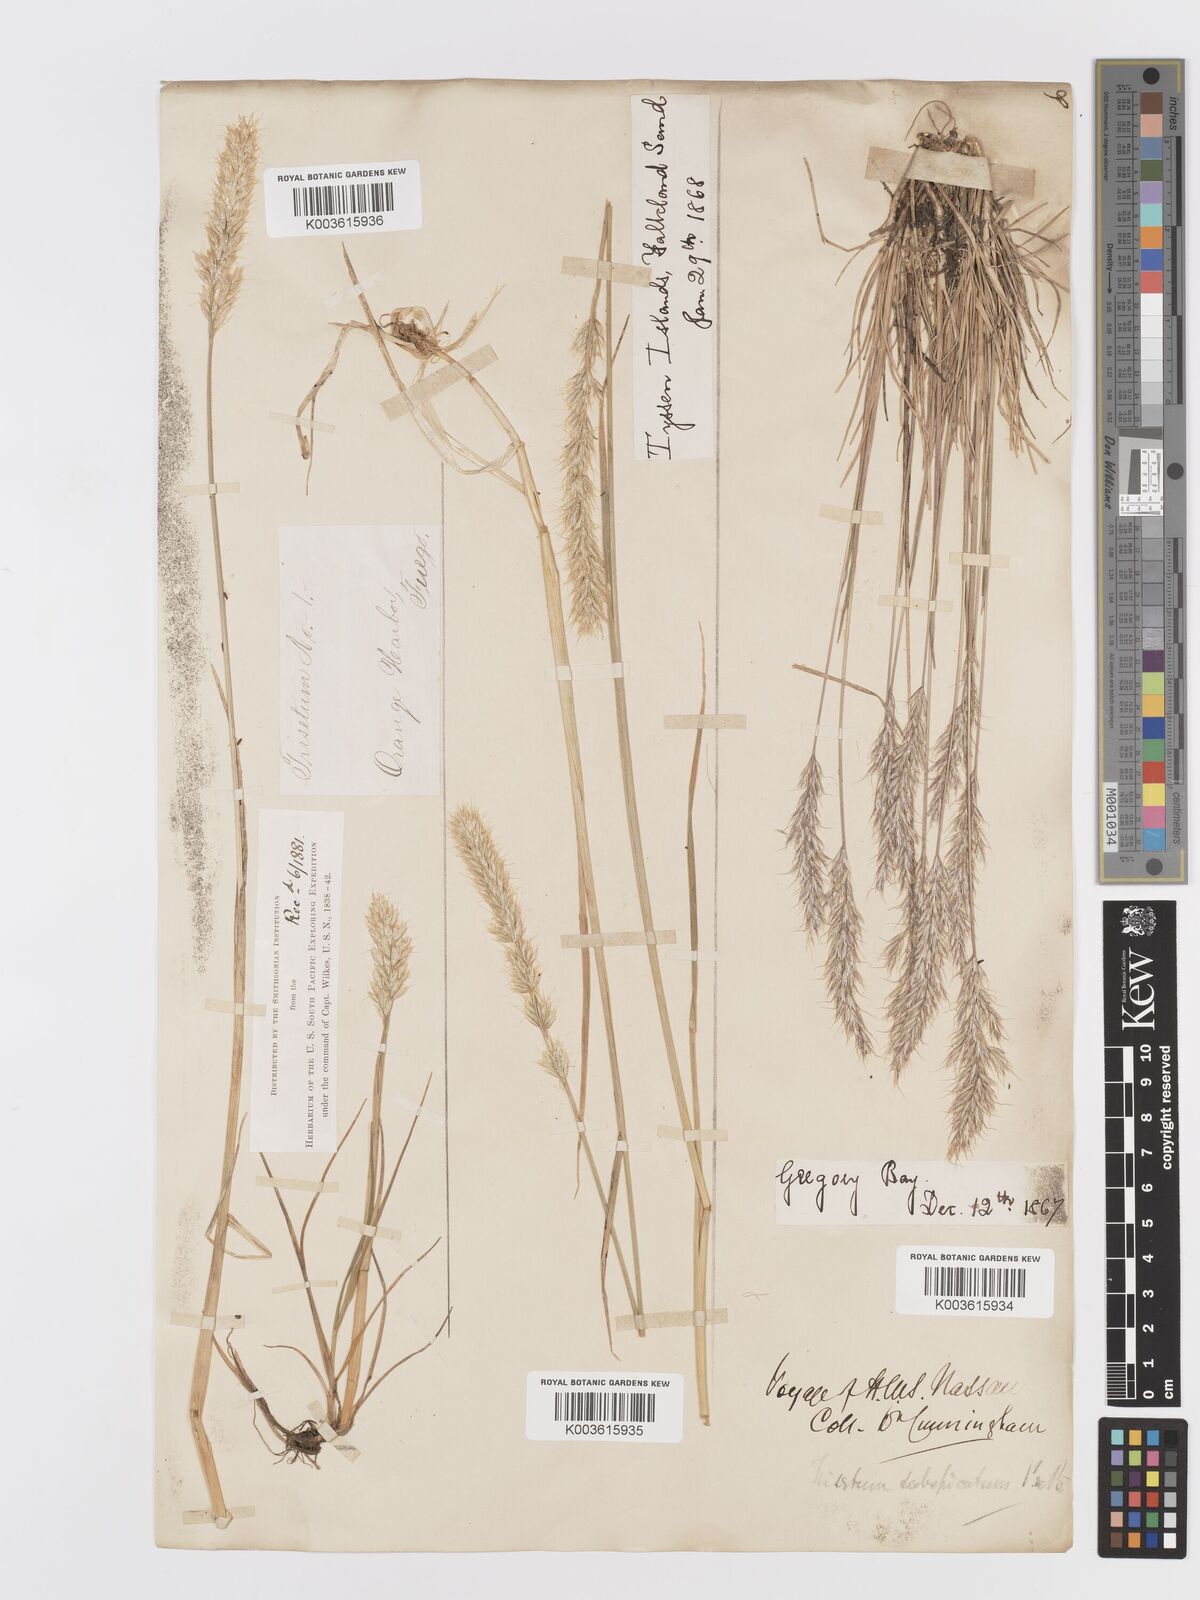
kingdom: Plantae
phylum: Tracheophyta
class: Liliopsida
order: Poales
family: Poaceae
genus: Koeleria
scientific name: Koeleria spicata
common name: Mountain trisetum
